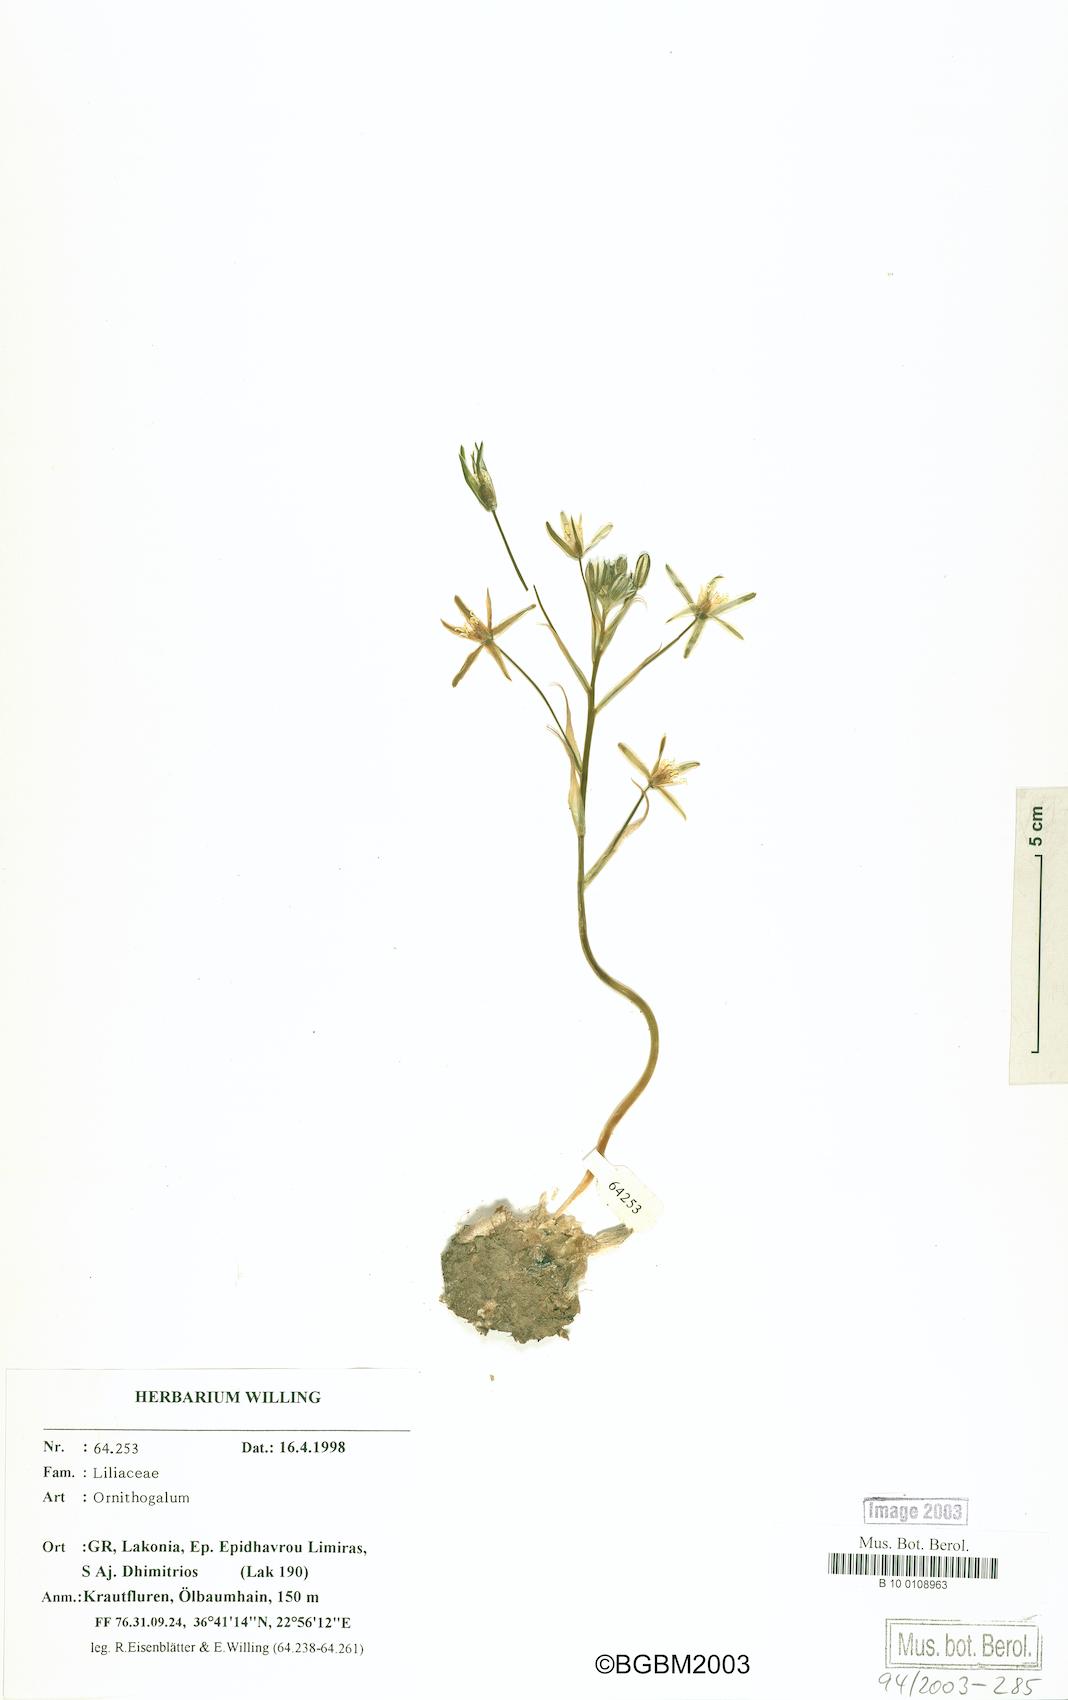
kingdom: Plantae
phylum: Tracheophyta
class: Liliopsida
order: Asparagales
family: Asparagaceae
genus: Ornithogalum
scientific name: Ornithogalum gussonei
